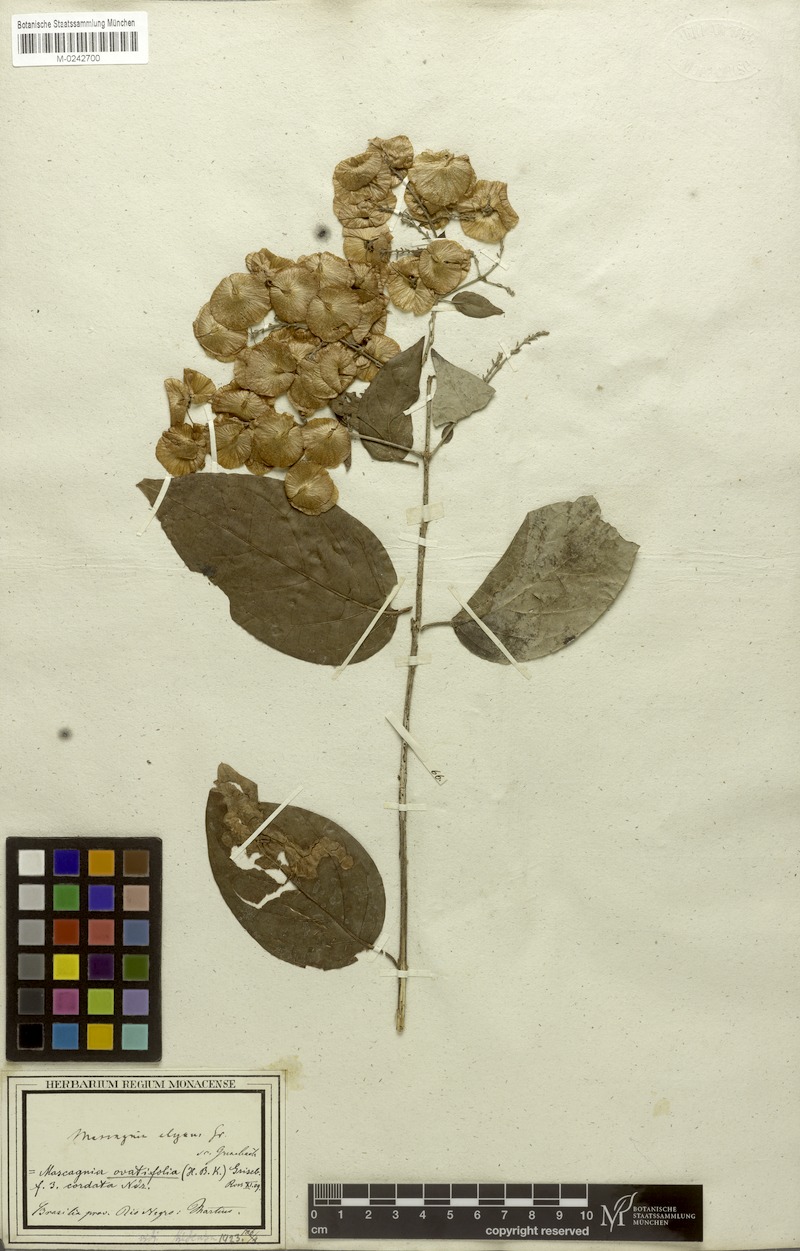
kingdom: Plantae
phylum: Tracheophyta
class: Magnoliopsida
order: Malpighiales
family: Malpighiaceae
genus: Mascagnia
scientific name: Mascagnia divaricata
